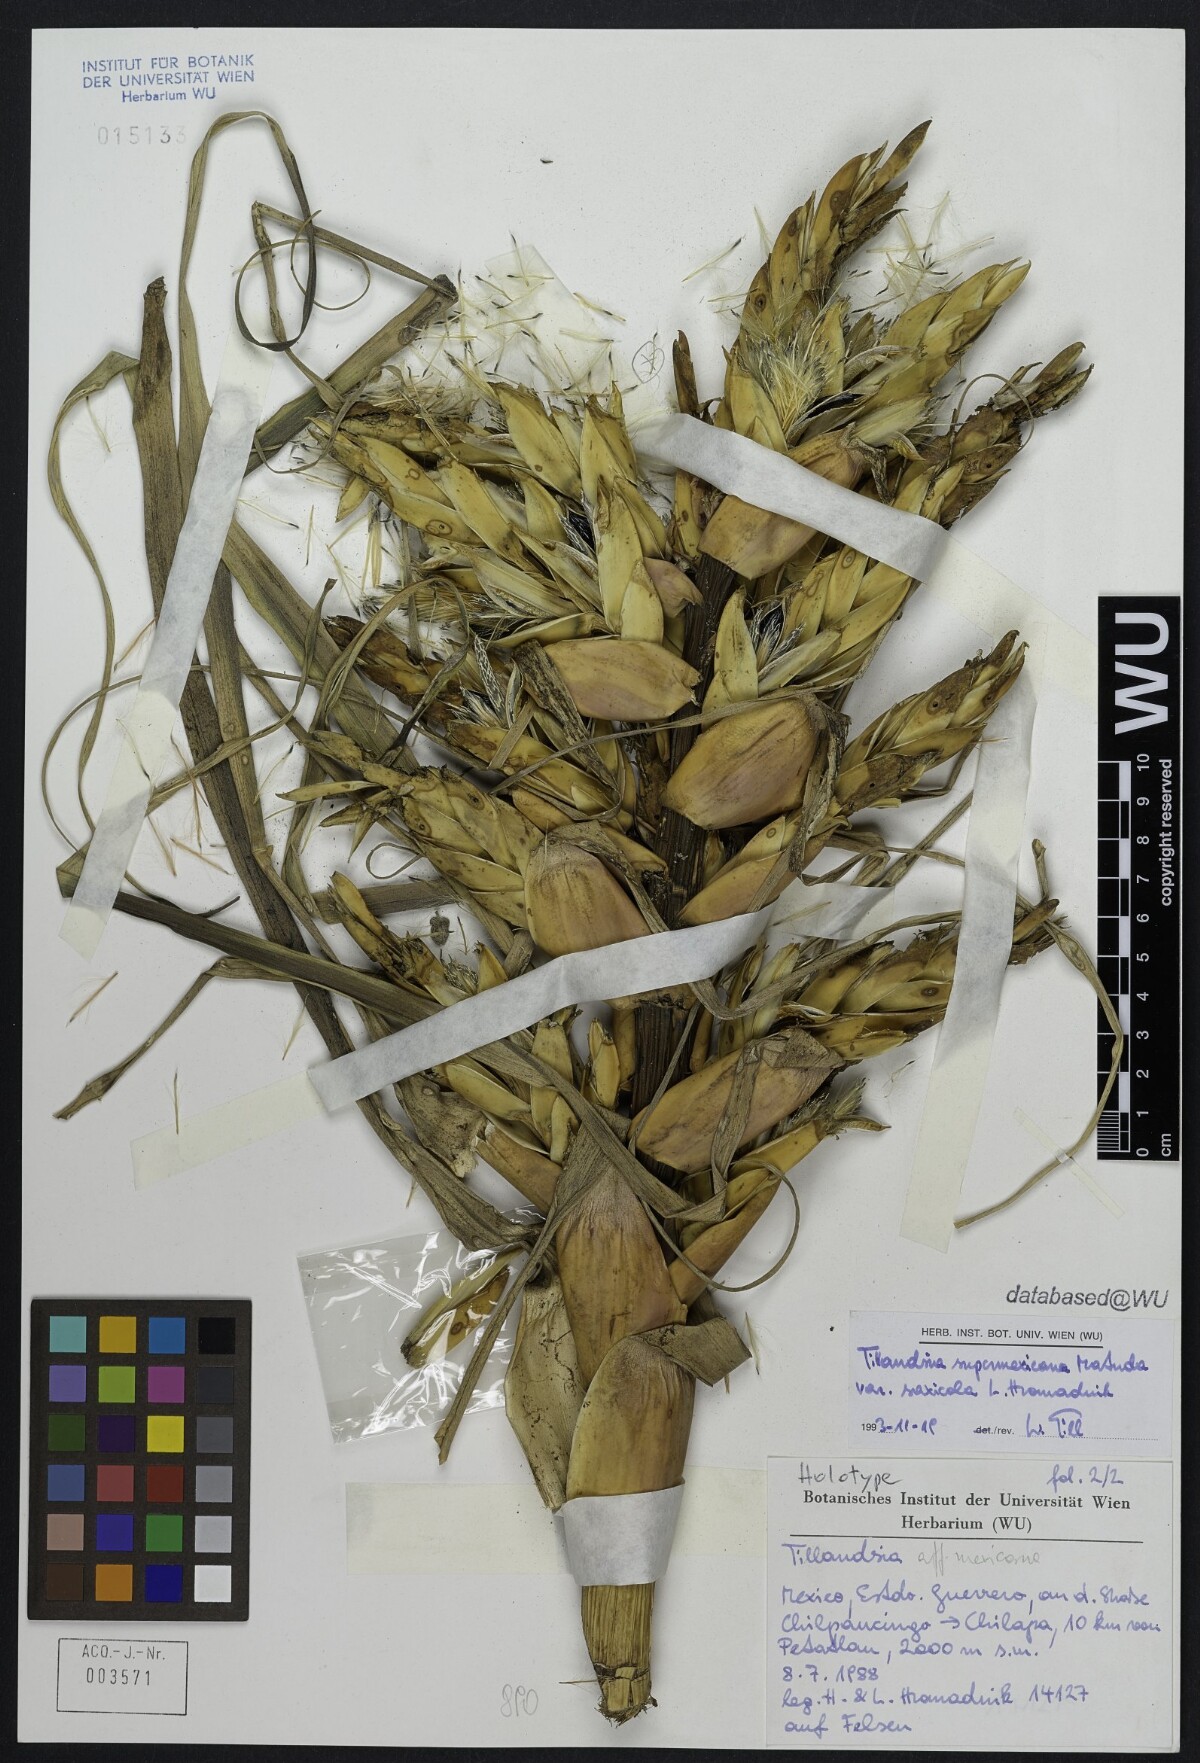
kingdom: Plantae
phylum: Tracheophyta
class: Liliopsida
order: Poales
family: Bromeliaceae
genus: Tillandsia
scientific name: Tillandsia supermexicana
